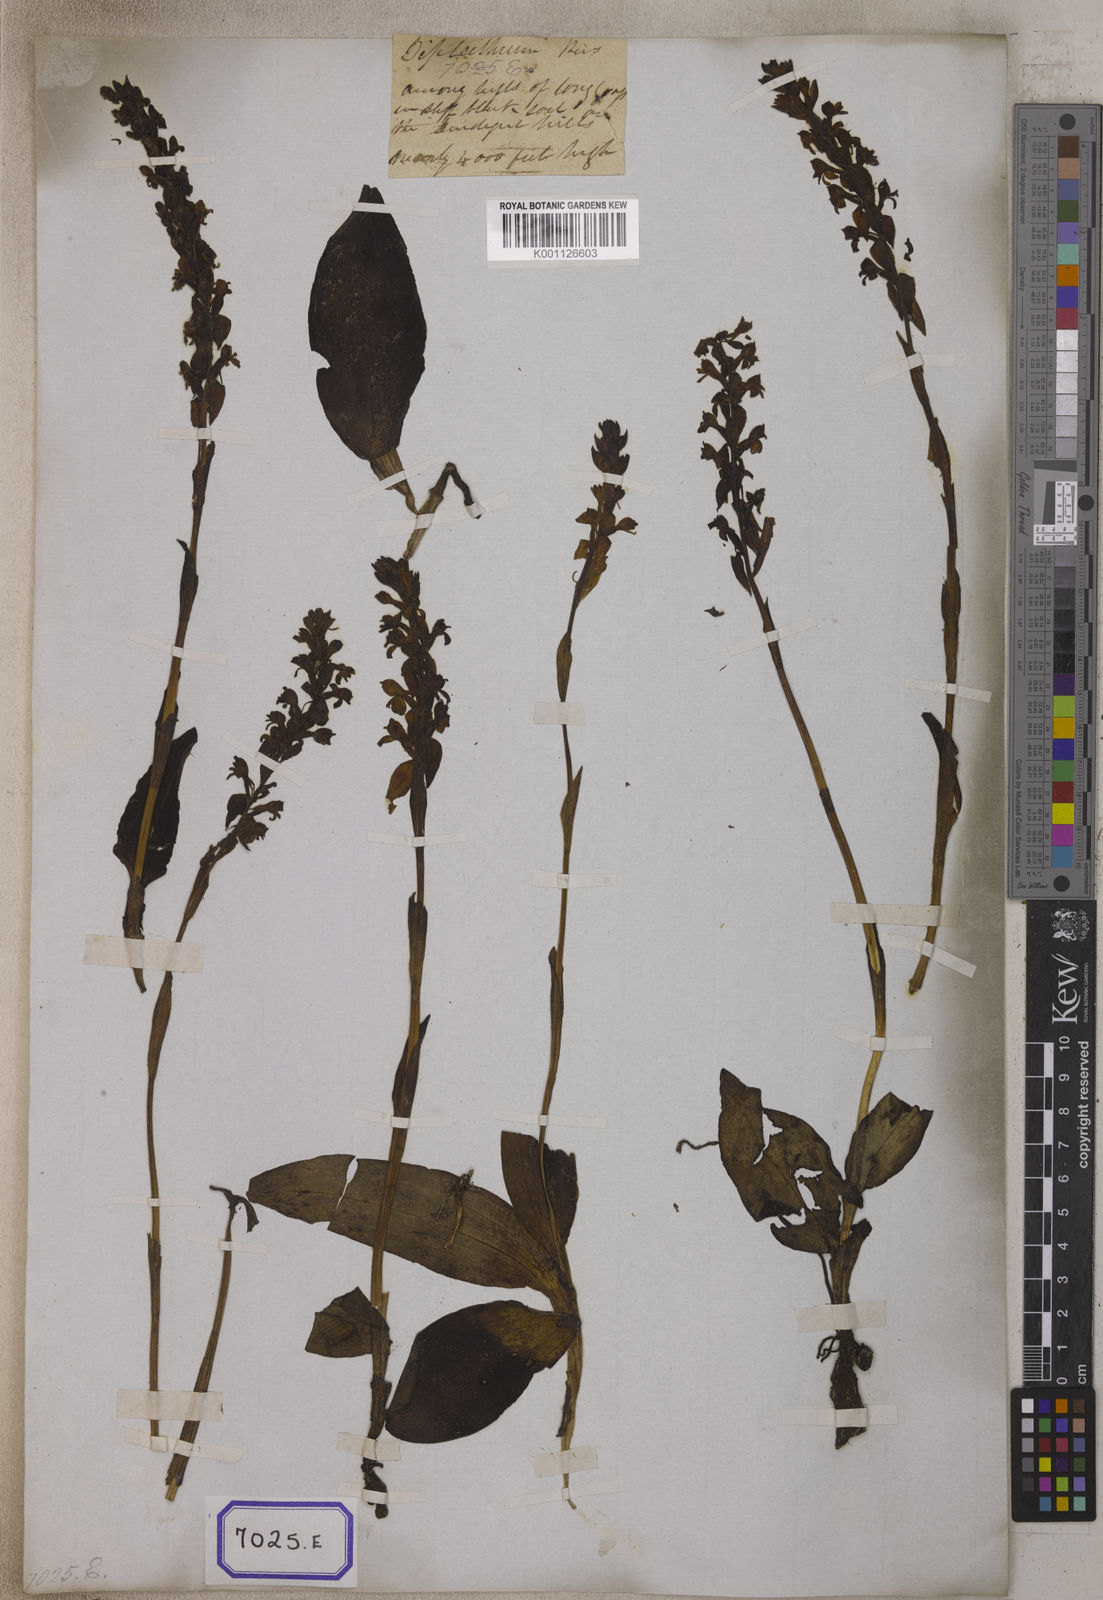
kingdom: Plantae
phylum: Tracheophyta
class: Liliopsida
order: Asparagales
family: Orchidaceae
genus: Satyrium
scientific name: Satyrium nepalense
